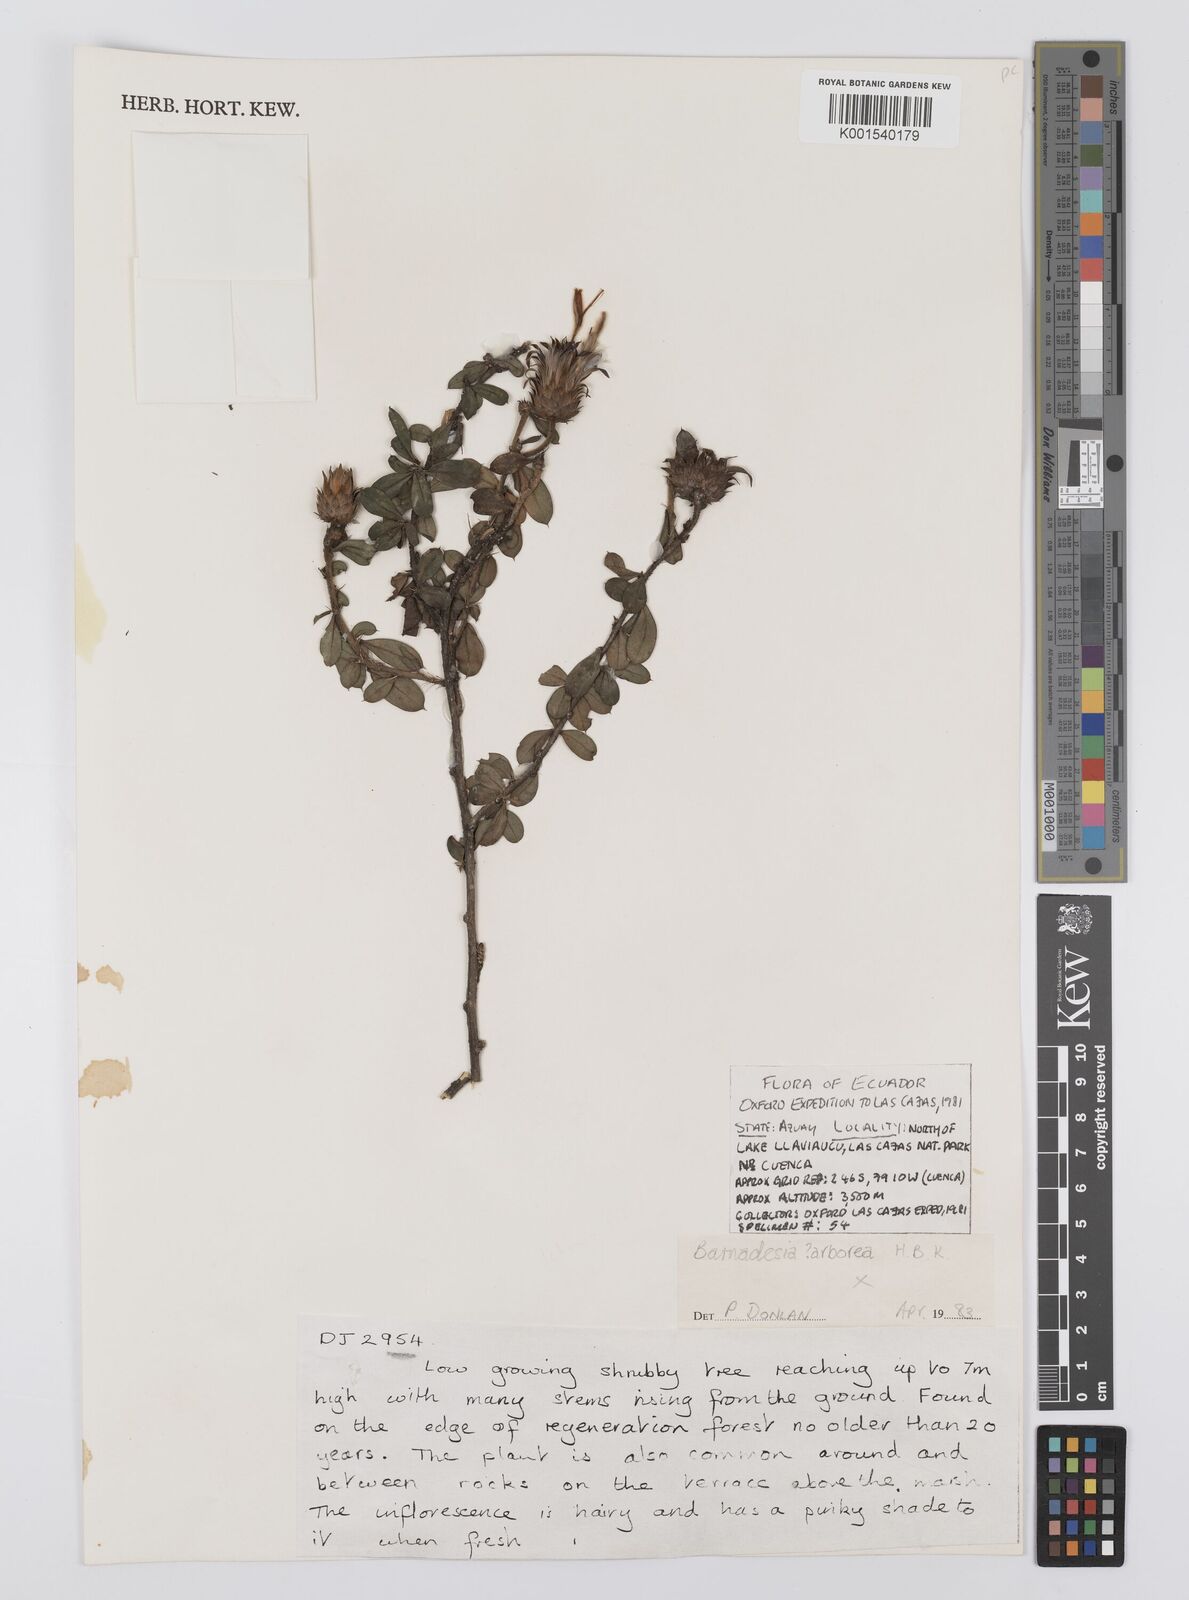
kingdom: Plantae
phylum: Tracheophyta
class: Magnoliopsida
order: Asterales
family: Asteraceae
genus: Barnadesia
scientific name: Barnadesia
